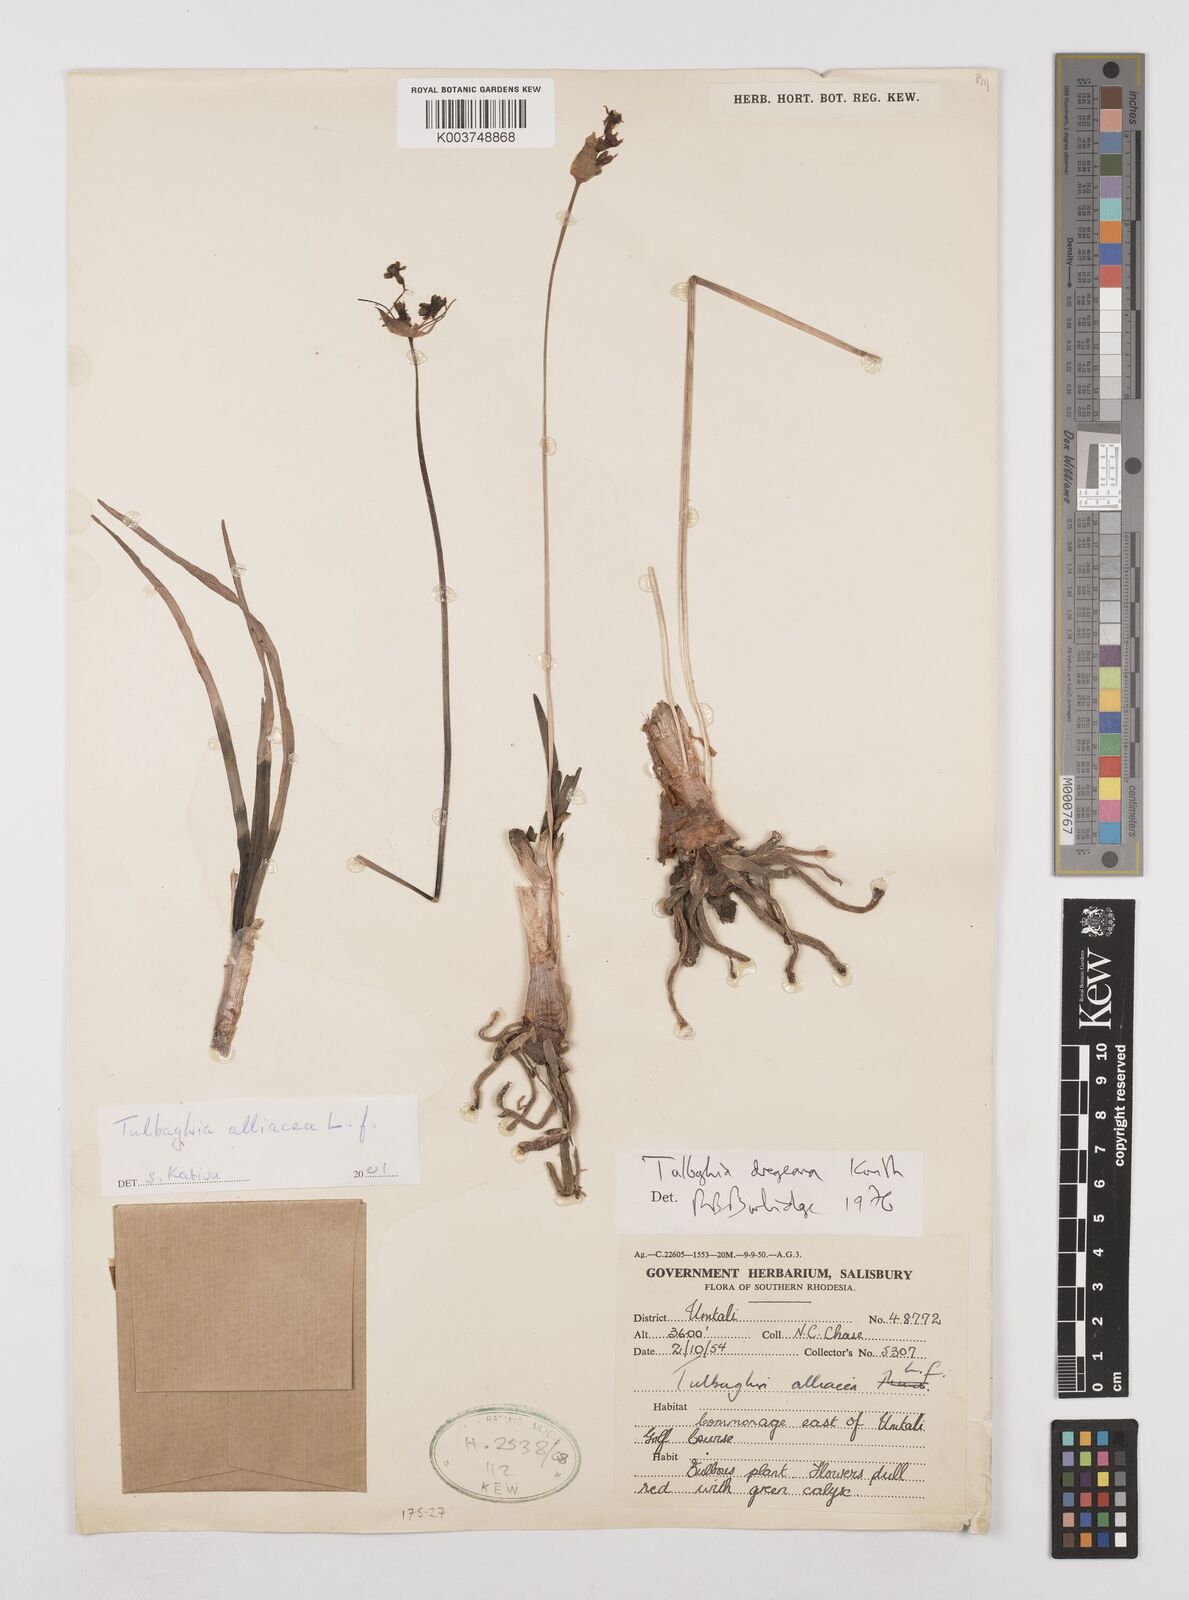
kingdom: Plantae
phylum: Tracheophyta
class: Liliopsida
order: Asparagales
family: Amaryllidaceae
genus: Tulbaghia
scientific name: Tulbaghia alliacea
